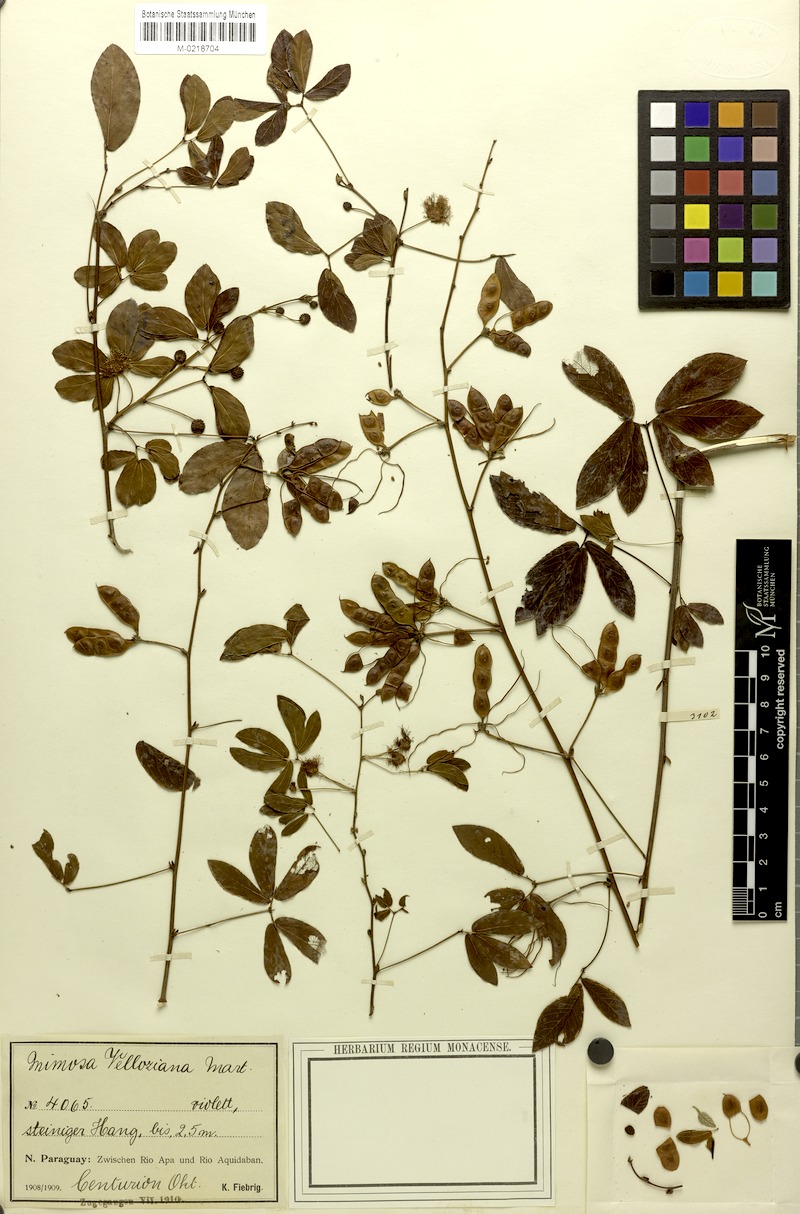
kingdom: Plantae
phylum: Tracheophyta
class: Magnoliopsida
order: Fabales
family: Fabaceae
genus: Mimosa
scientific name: Mimosa sensibilis
